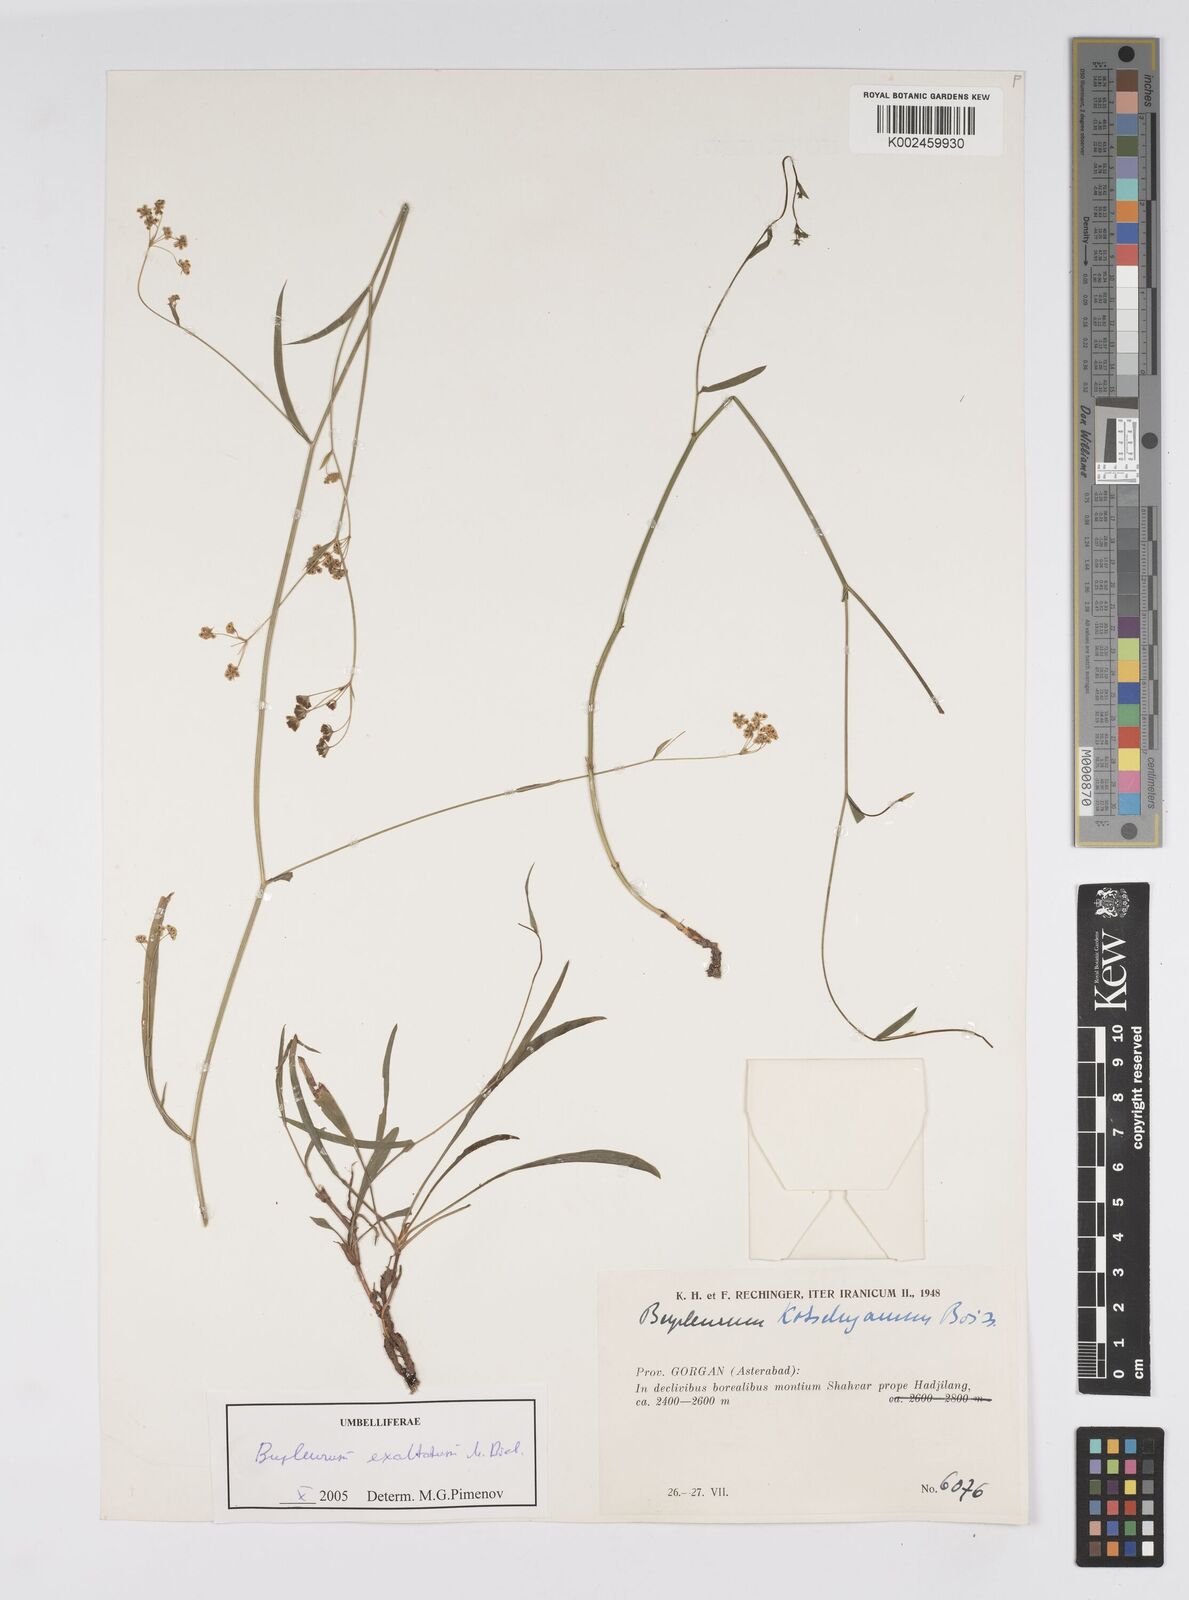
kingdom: Plantae
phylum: Tracheophyta
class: Magnoliopsida
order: Apiales
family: Apiaceae
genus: Bupleurum
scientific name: Bupleurum falcatum
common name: Sickle-leaved hare's-ear
